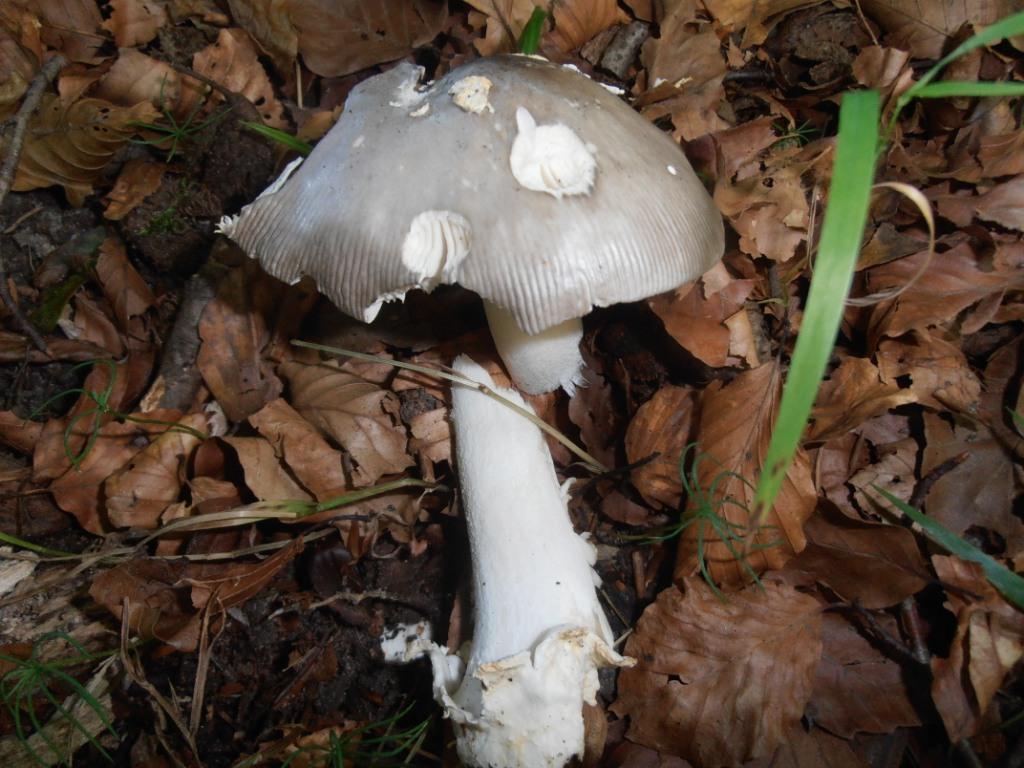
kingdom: Fungi
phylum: Basidiomycota
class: Agaricomycetes
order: Agaricales
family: Amanitaceae
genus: Amanita
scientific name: Amanita vaginata
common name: grå kam-fluesvamp
